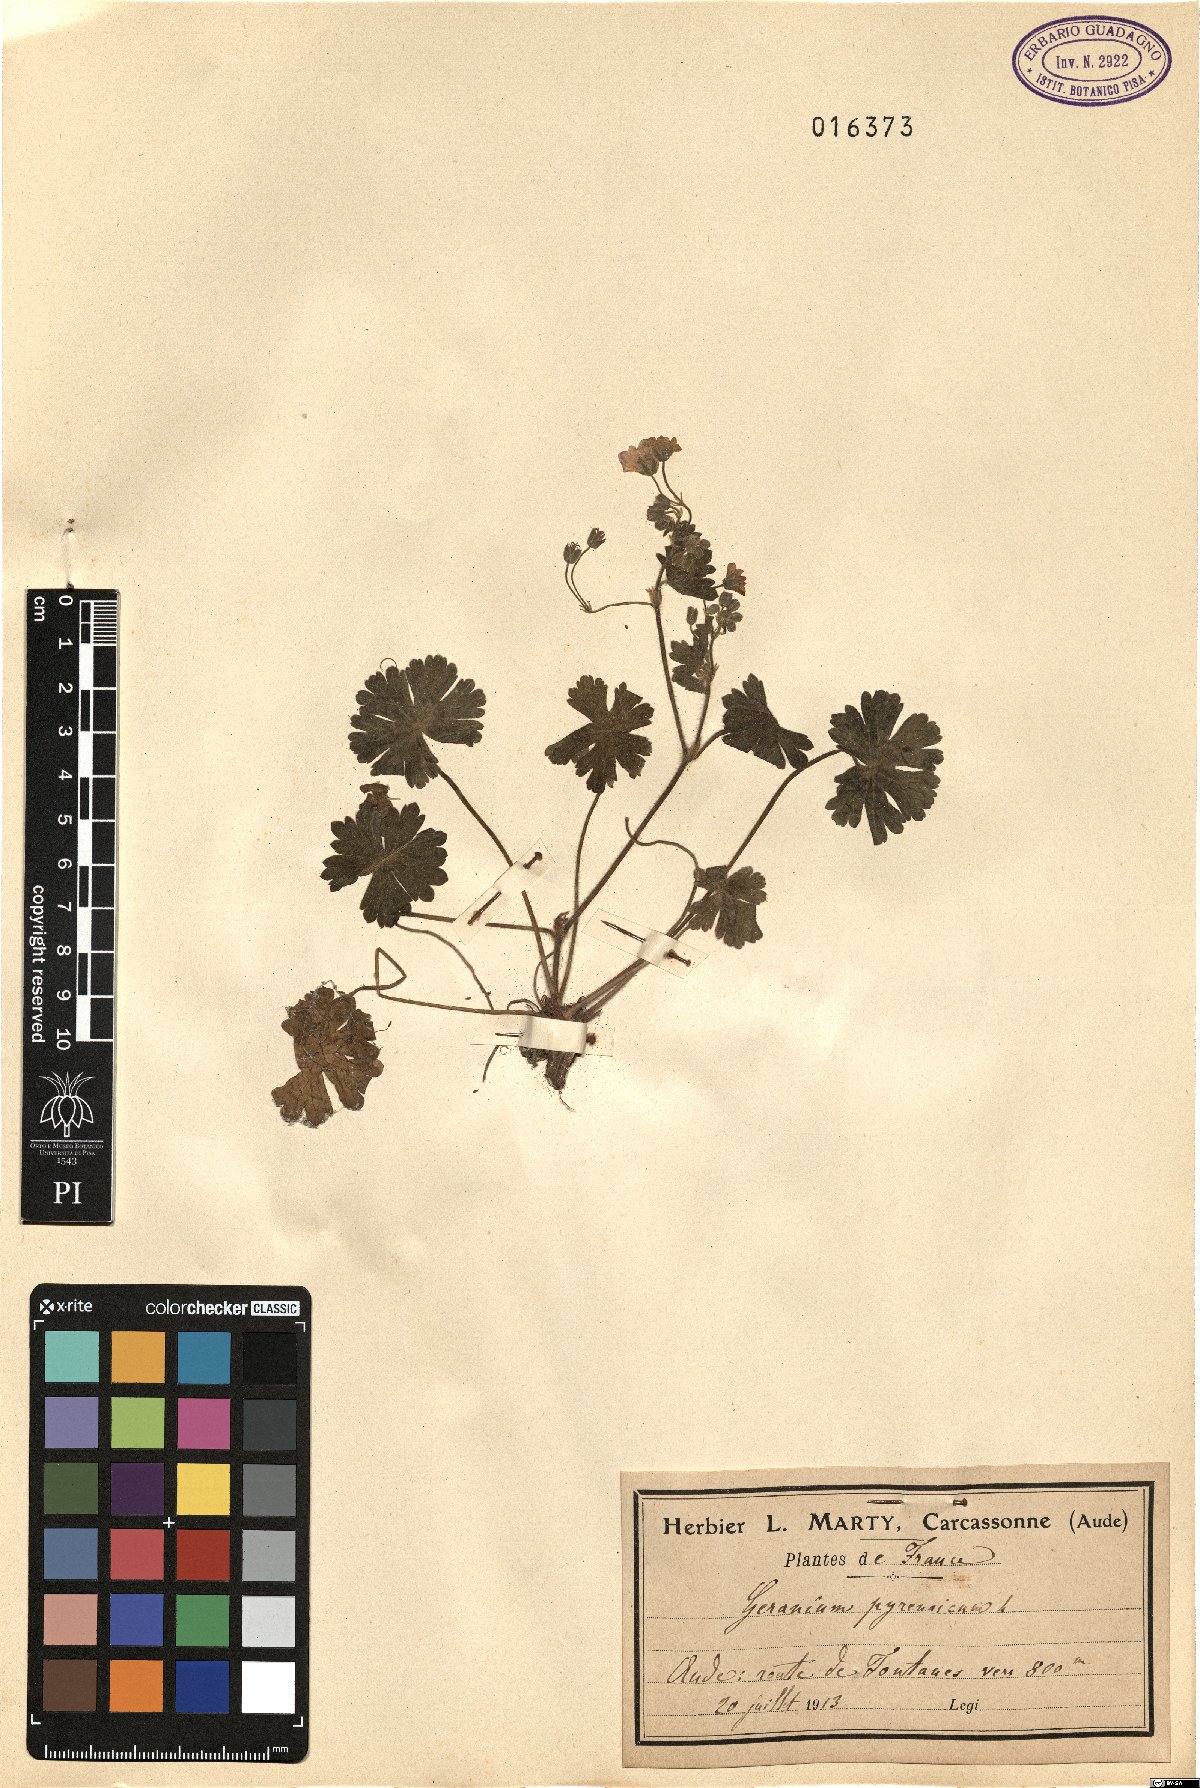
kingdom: Plantae
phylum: Tracheophyta
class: Magnoliopsida
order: Geraniales
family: Geraniaceae
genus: Geranium
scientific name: Geranium pyrenaicum
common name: Hedgerow crane's-bill
